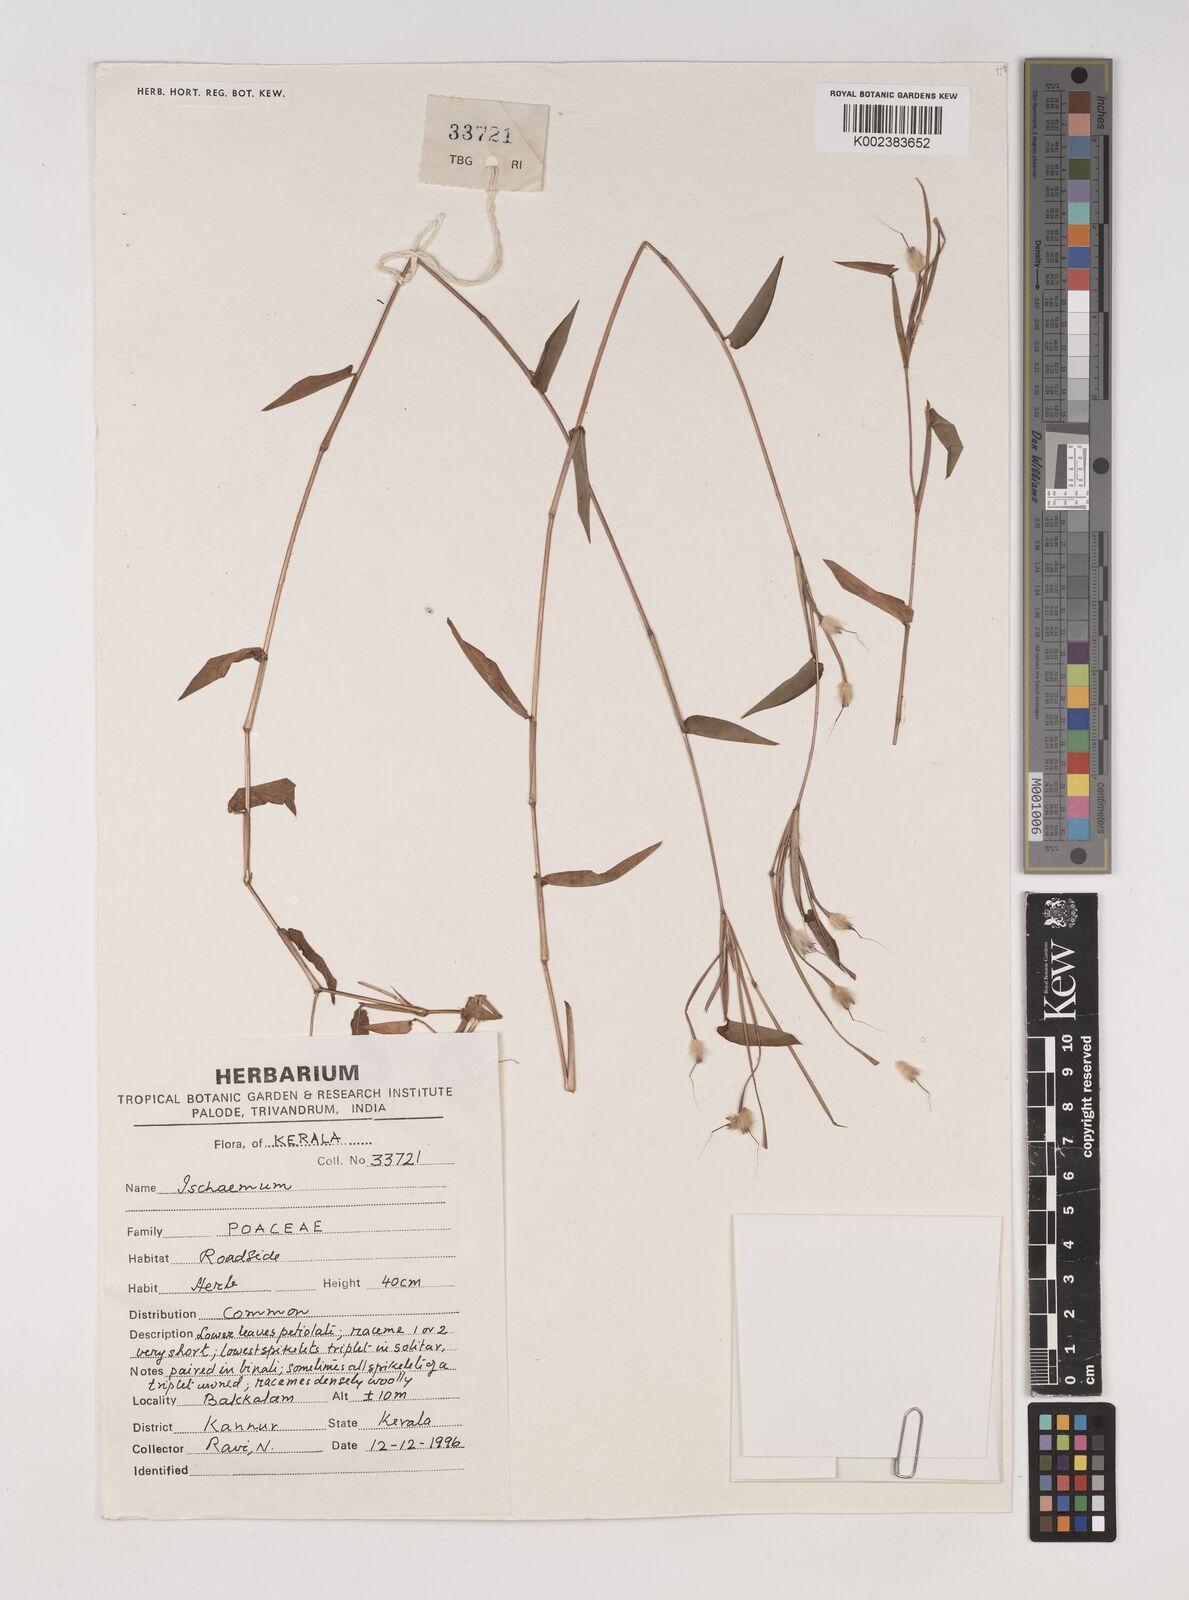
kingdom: Plantae
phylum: Tracheophyta
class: Liliopsida
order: Poales
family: Poaceae
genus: Ischaemum
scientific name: Ischaemum
